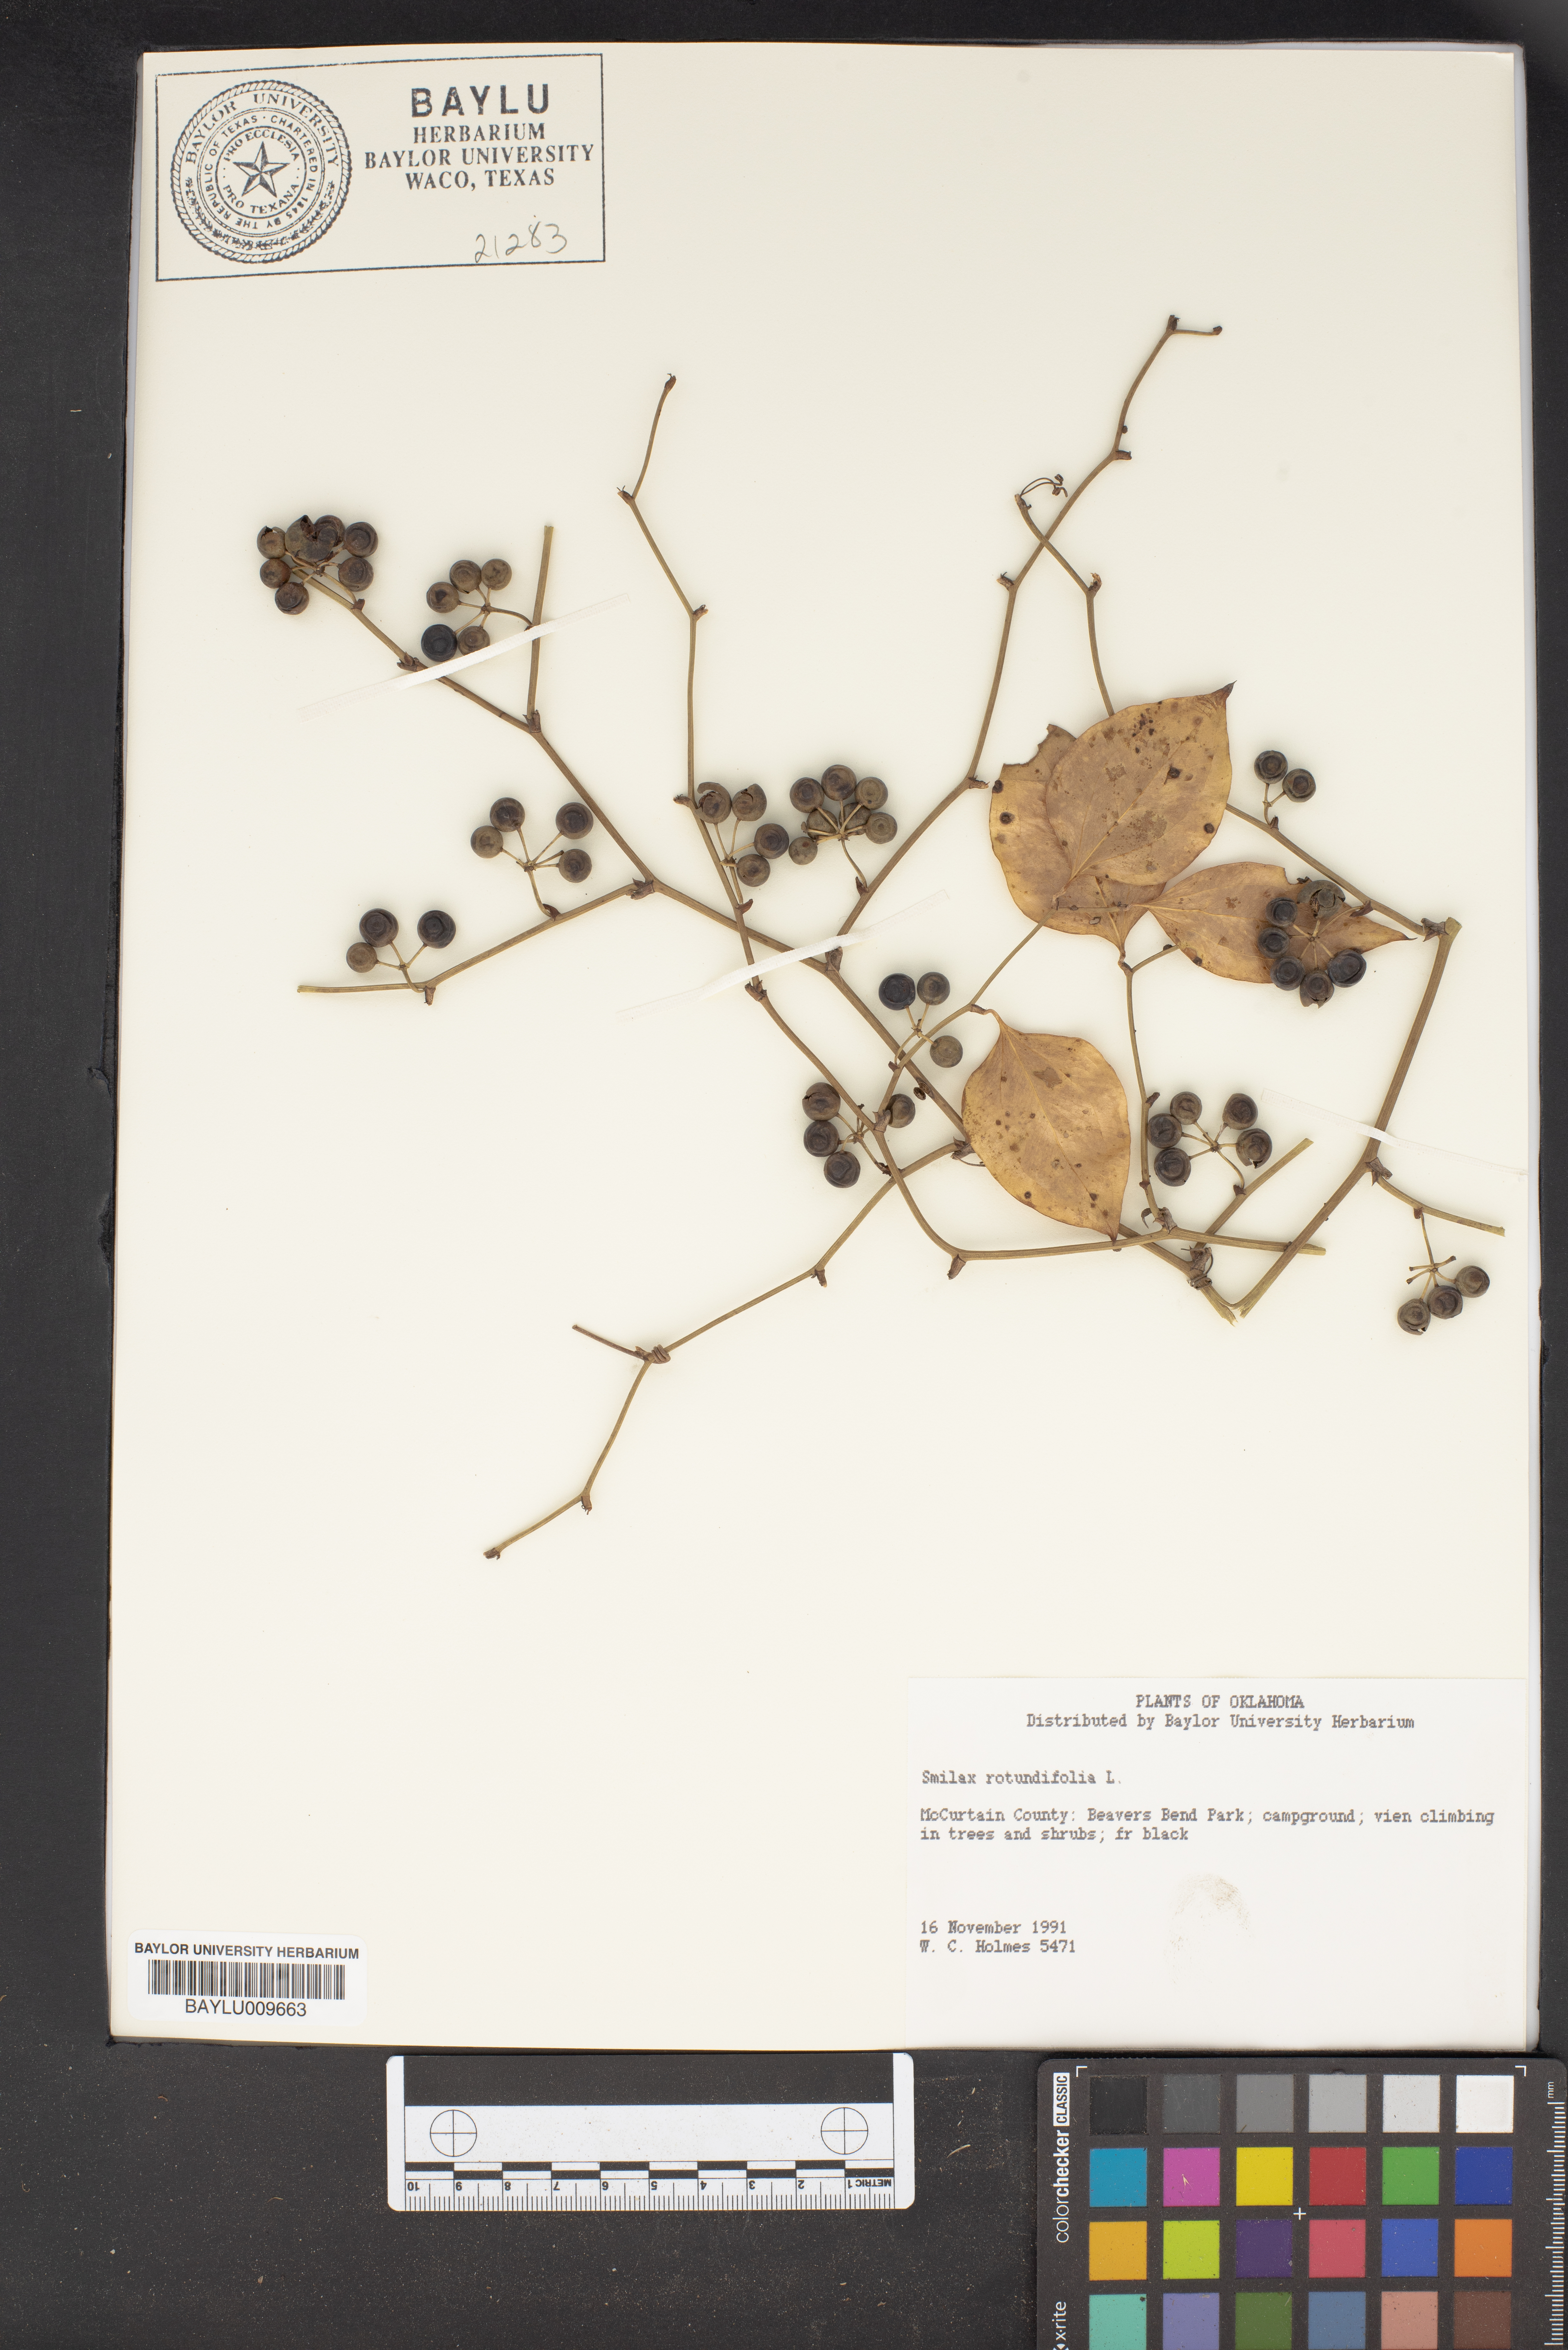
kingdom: Plantae
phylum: Tracheophyta
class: Liliopsida
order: Liliales
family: Smilacaceae
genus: Smilax
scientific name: Smilax rotundifolia
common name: Bullbriar
